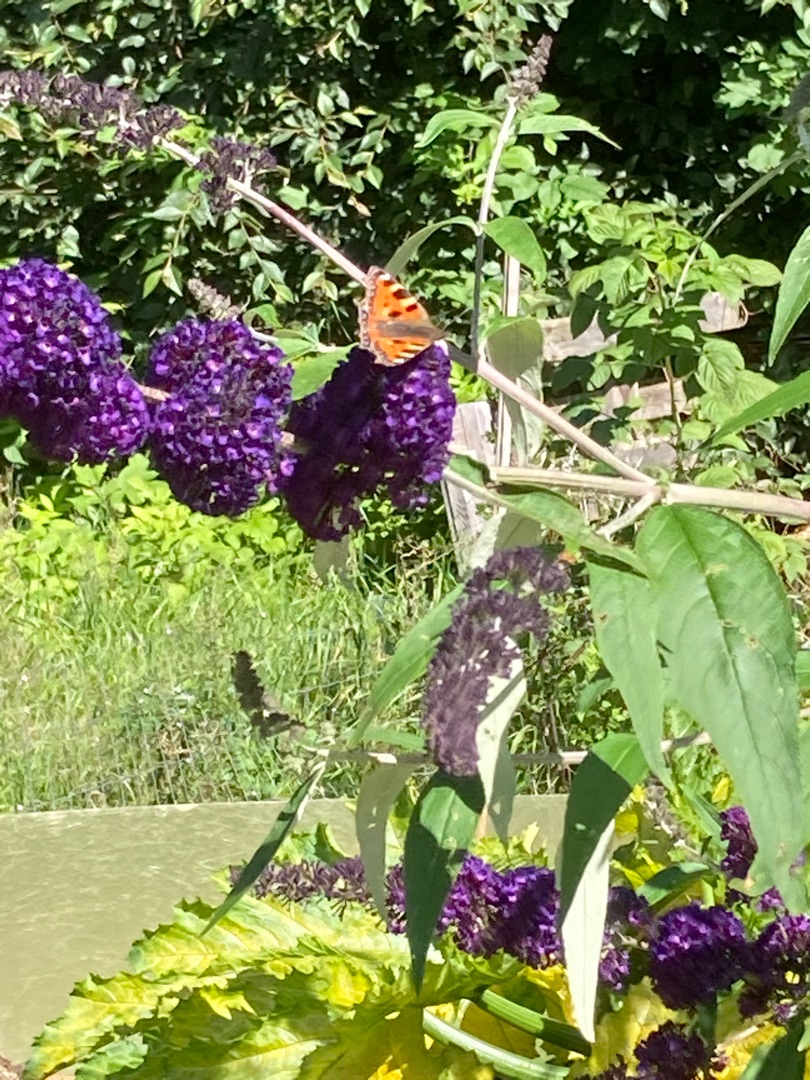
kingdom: Animalia
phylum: Arthropoda
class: Insecta
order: Lepidoptera
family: Nymphalidae
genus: Aglais
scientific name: Aglais urticae
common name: Nældens takvinge
